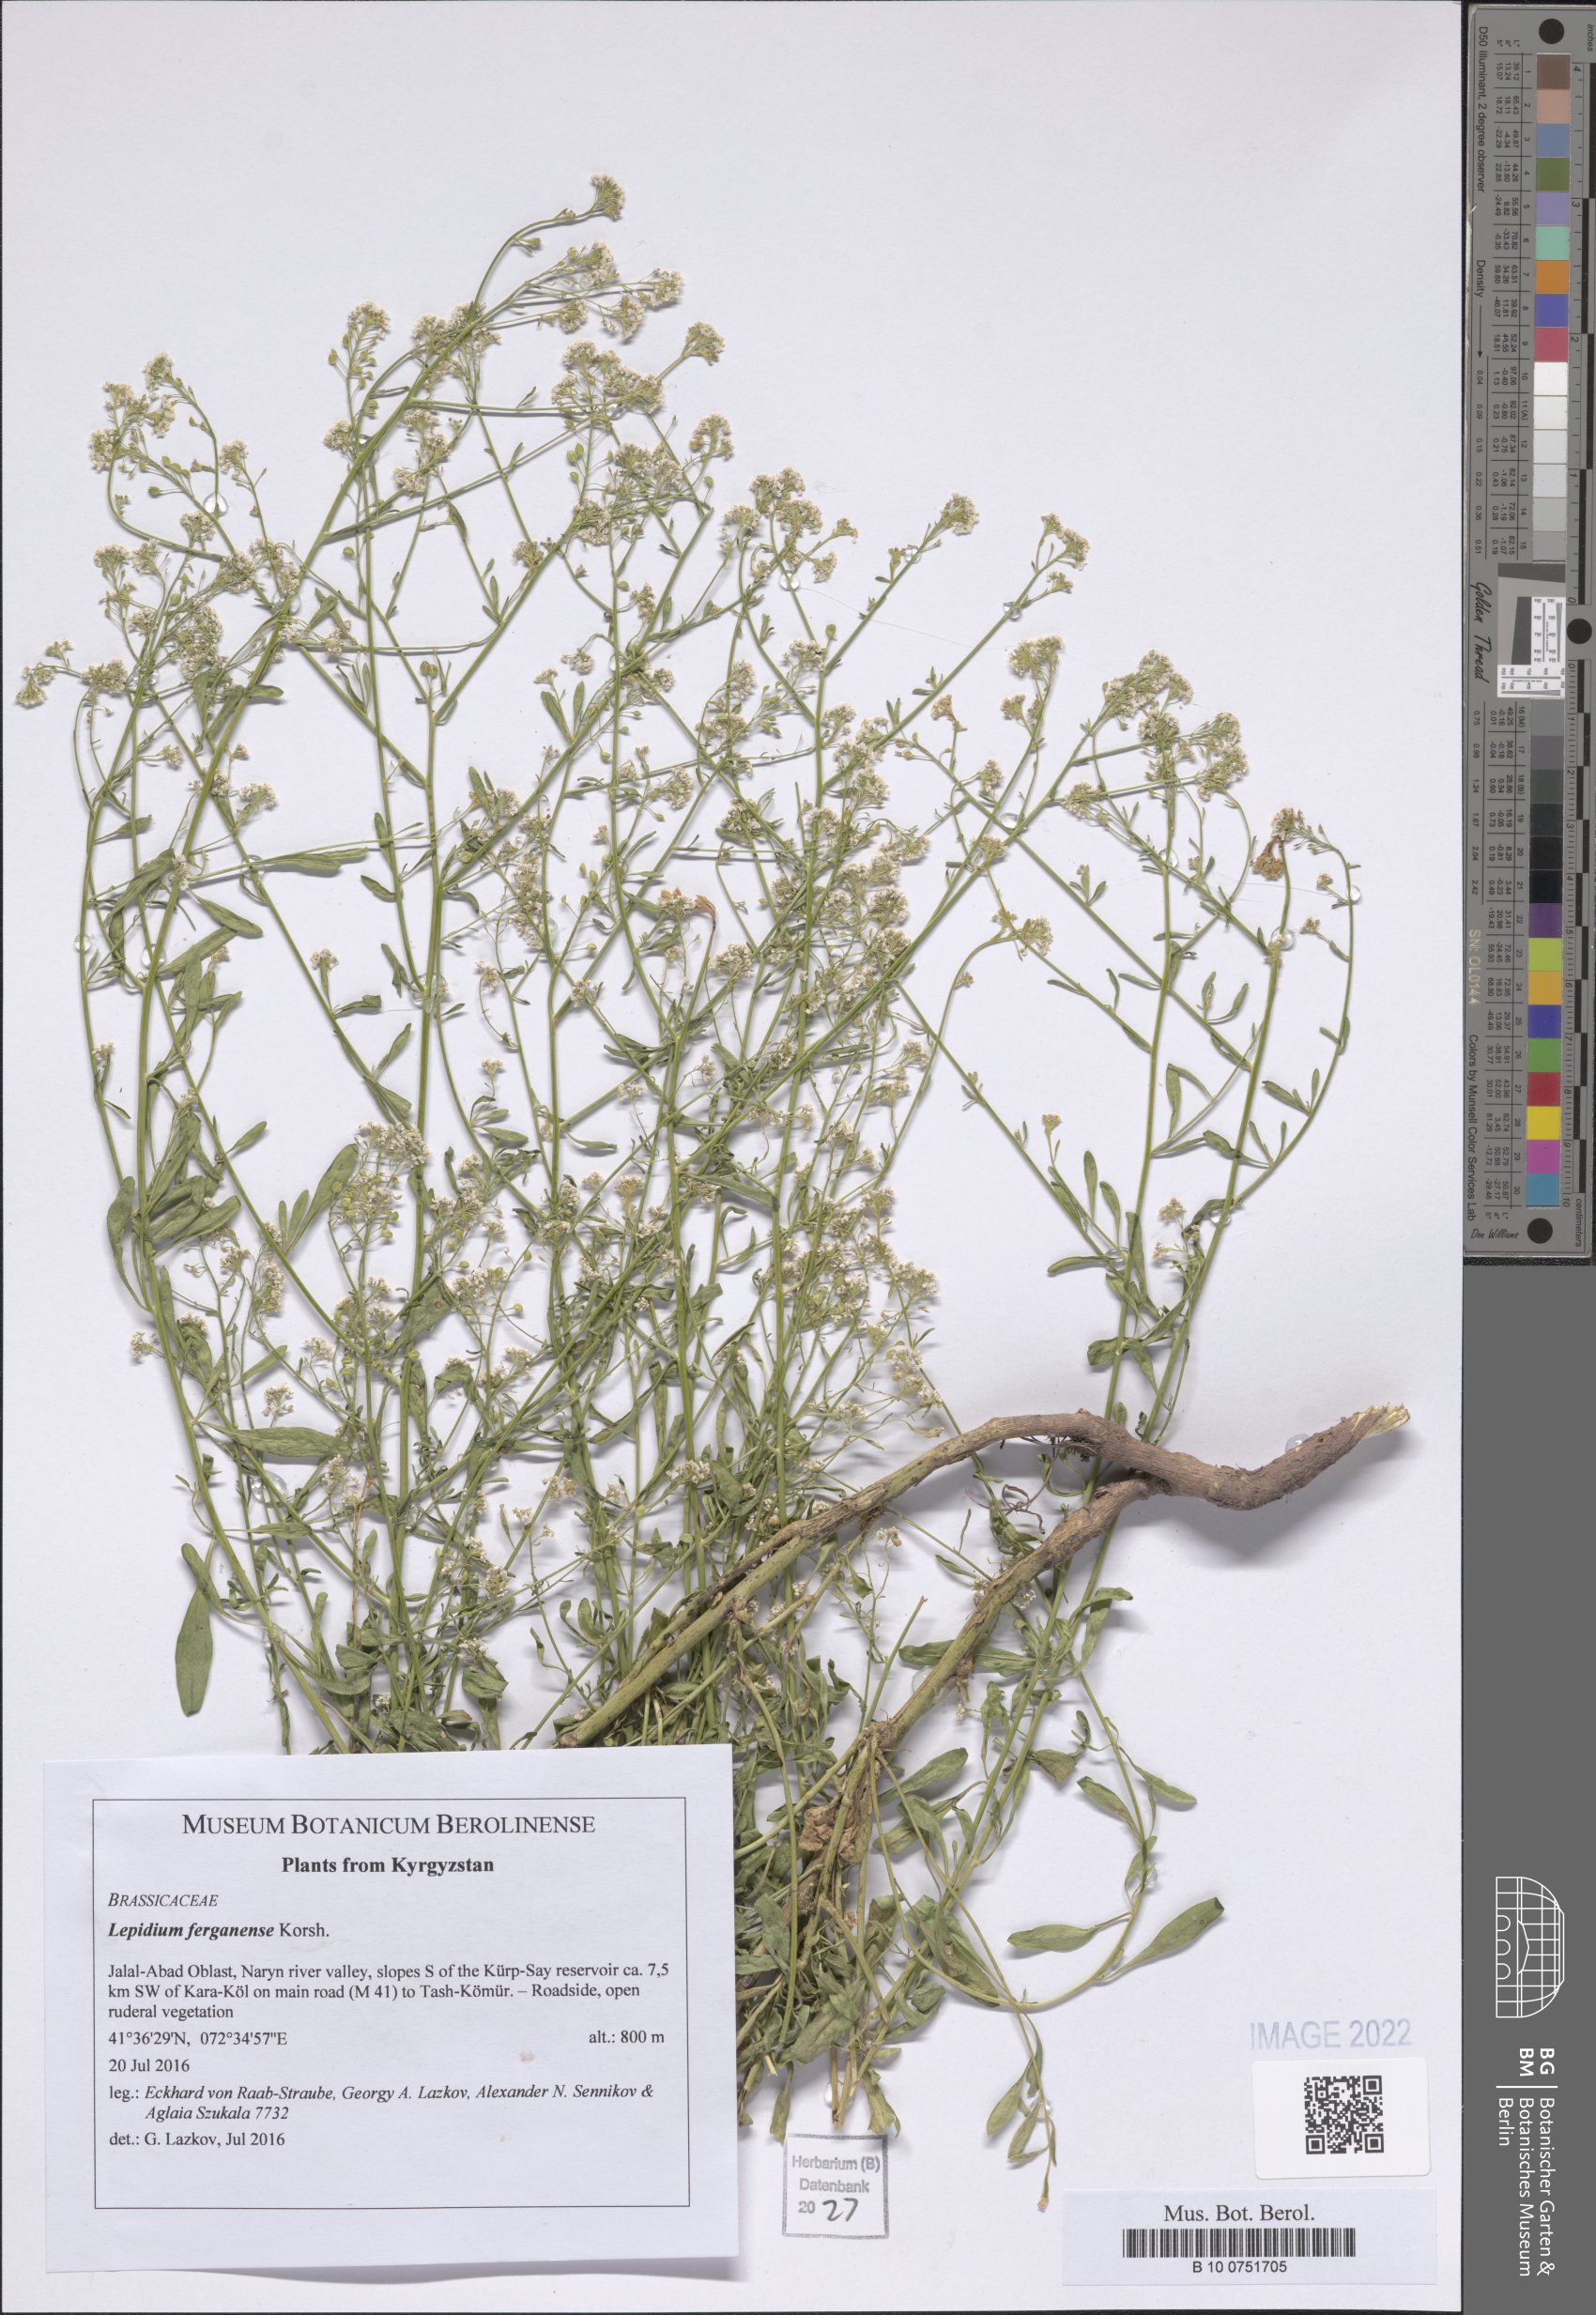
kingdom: Plantae
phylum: Tracheophyta
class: Magnoliopsida
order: Brassicales
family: Brassicaceae
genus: Lepidium
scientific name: Lepidium ferganense
